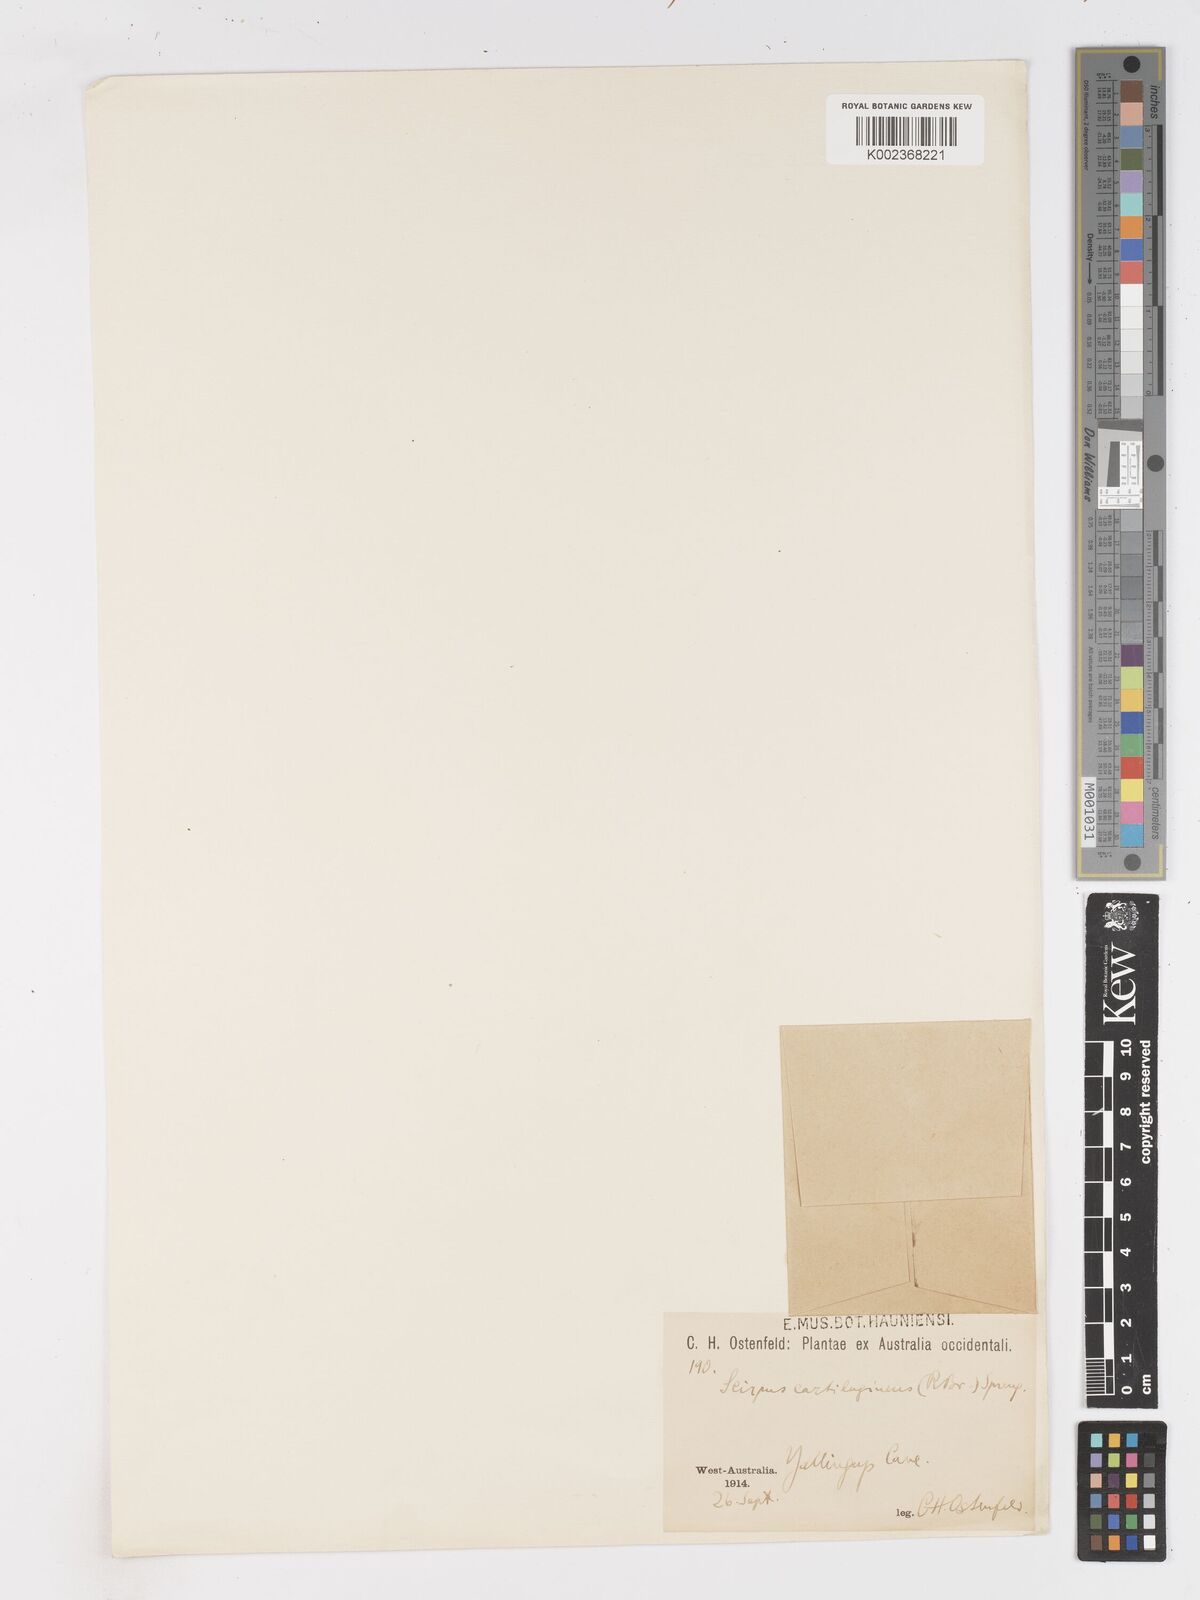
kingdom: Plantae
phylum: Tracheophyta
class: Liliopsida
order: Poales
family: Cyperaceae
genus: Isolepis
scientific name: Isolepis marginata
